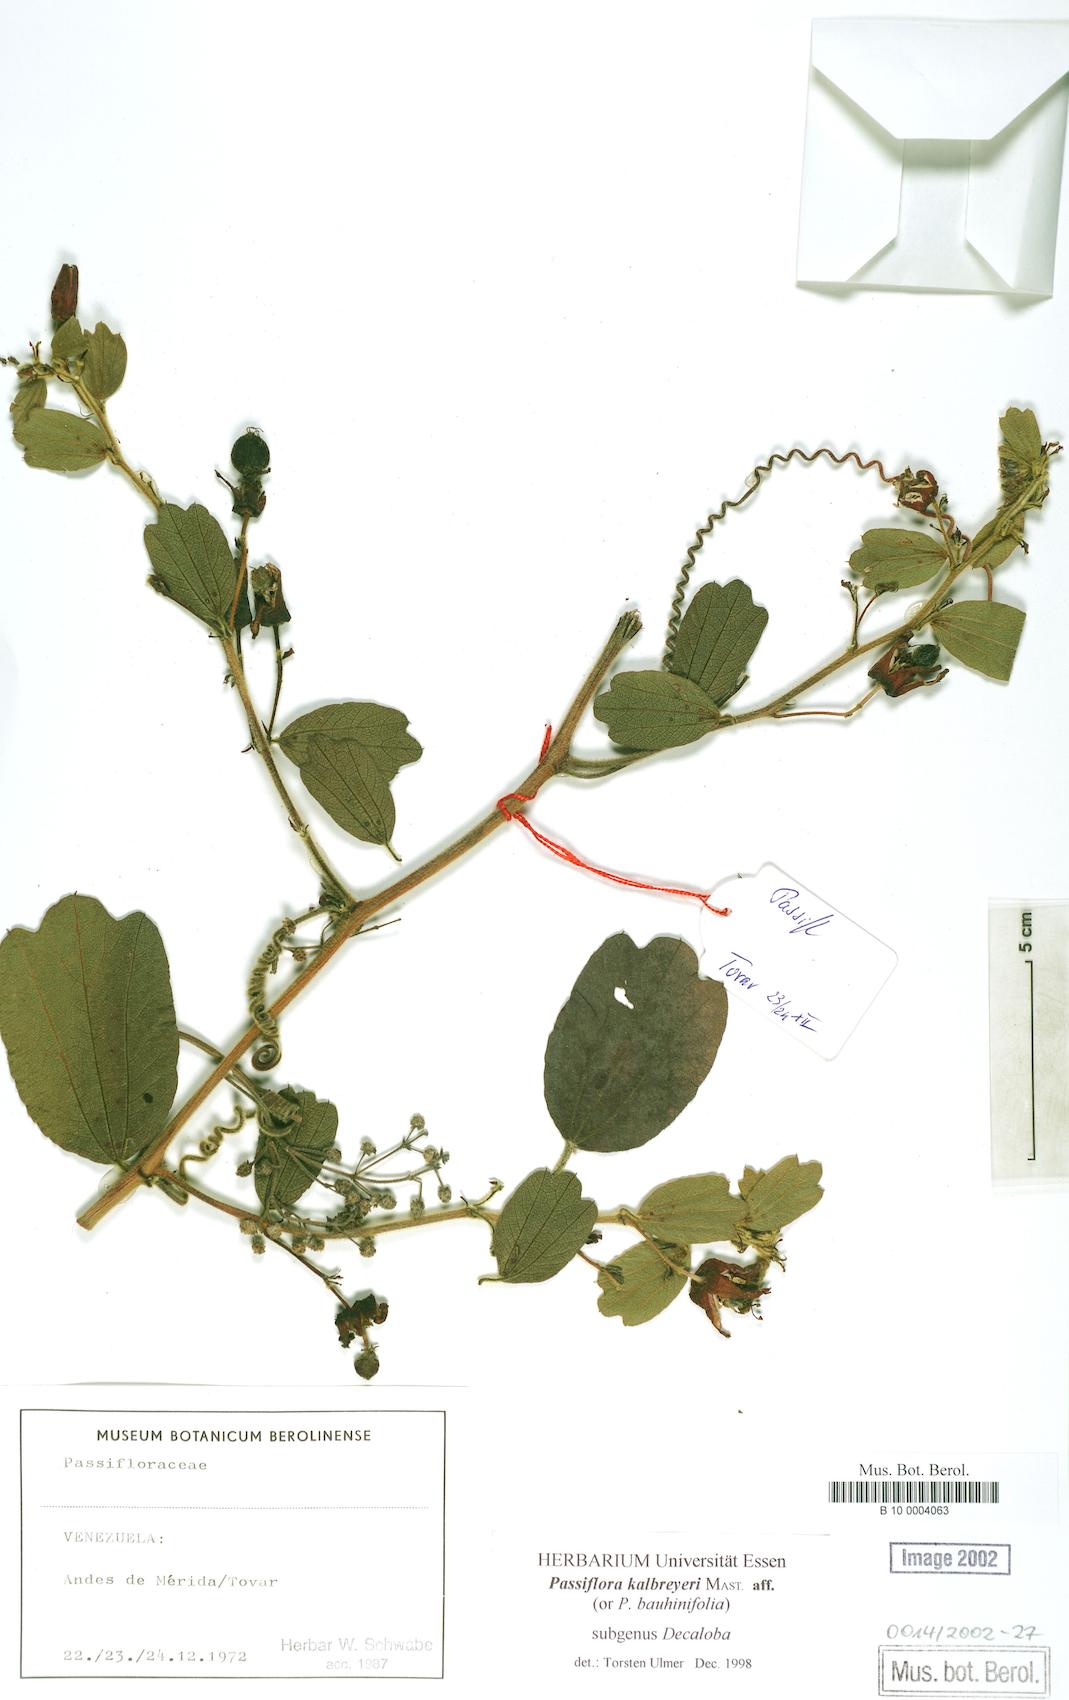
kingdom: Plantae
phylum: Tracheophyta
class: Magnoliopsida
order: Malpighiales
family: Passifloraceae
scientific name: Passifloraceae
